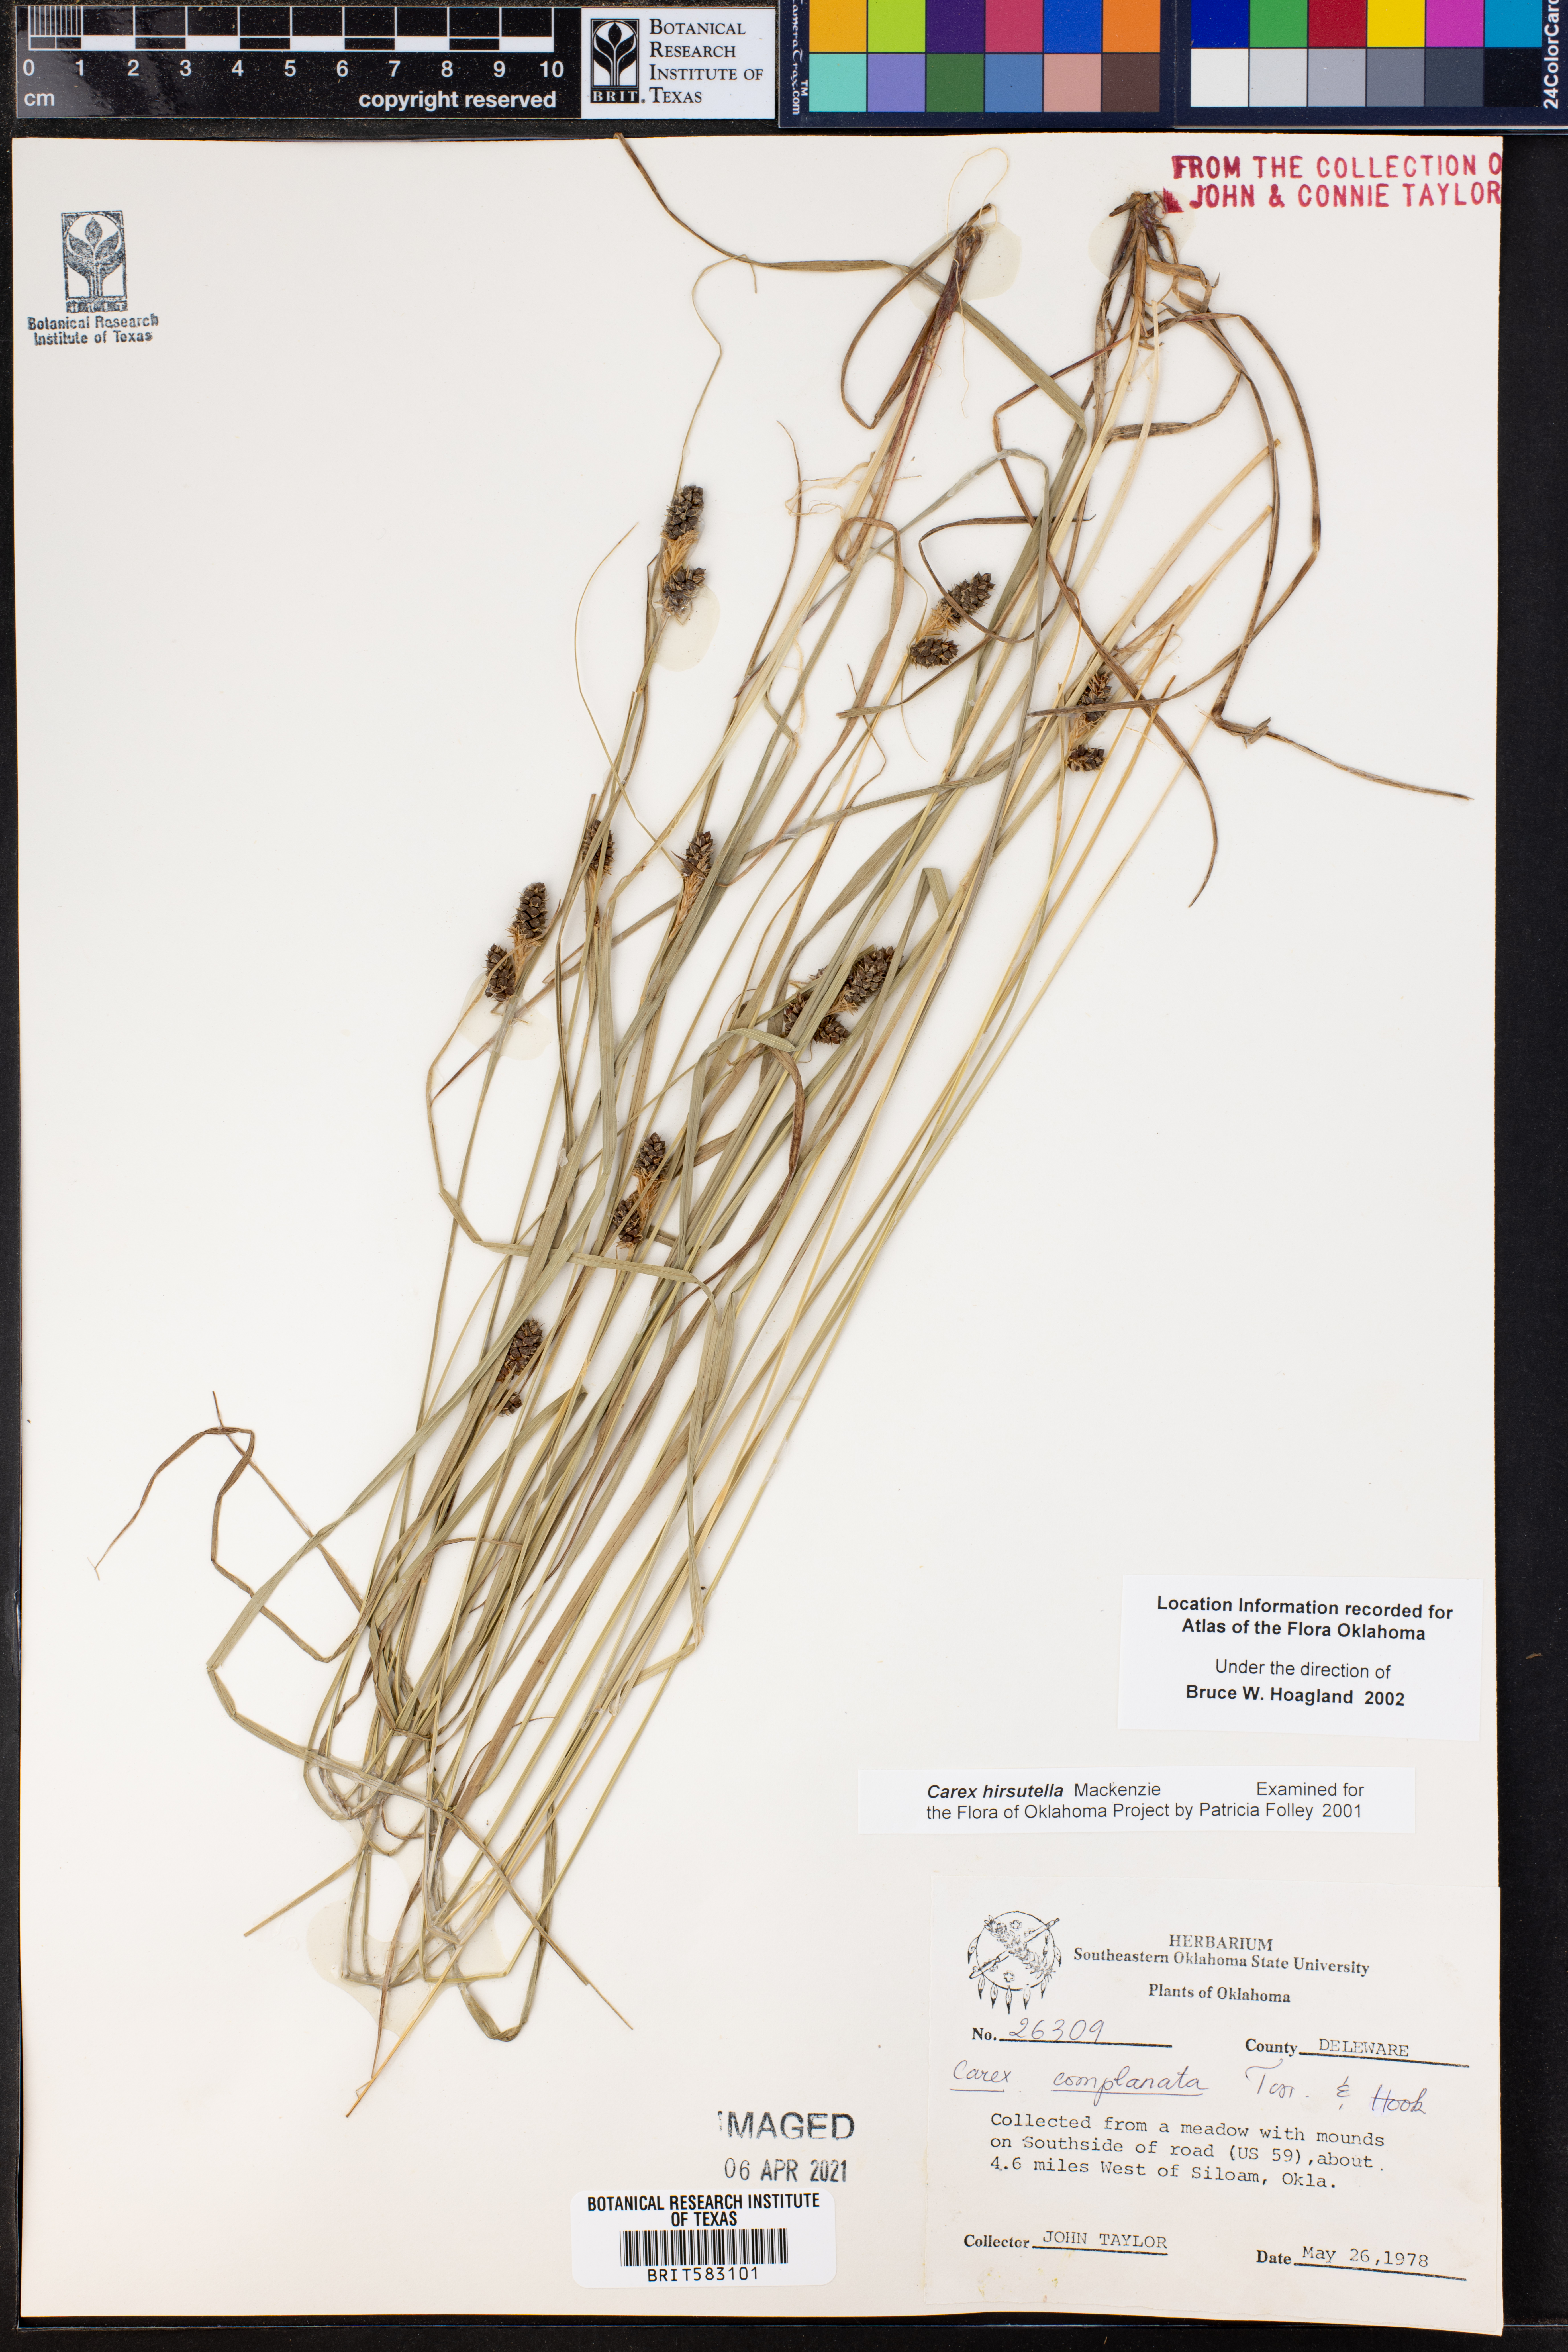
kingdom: Plantae
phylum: Tracheophyta
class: Liliopsida
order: Poales
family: Cyperaceae
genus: Carex
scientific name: Carex hirsutella
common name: Fuzzy wuzzy sedge
